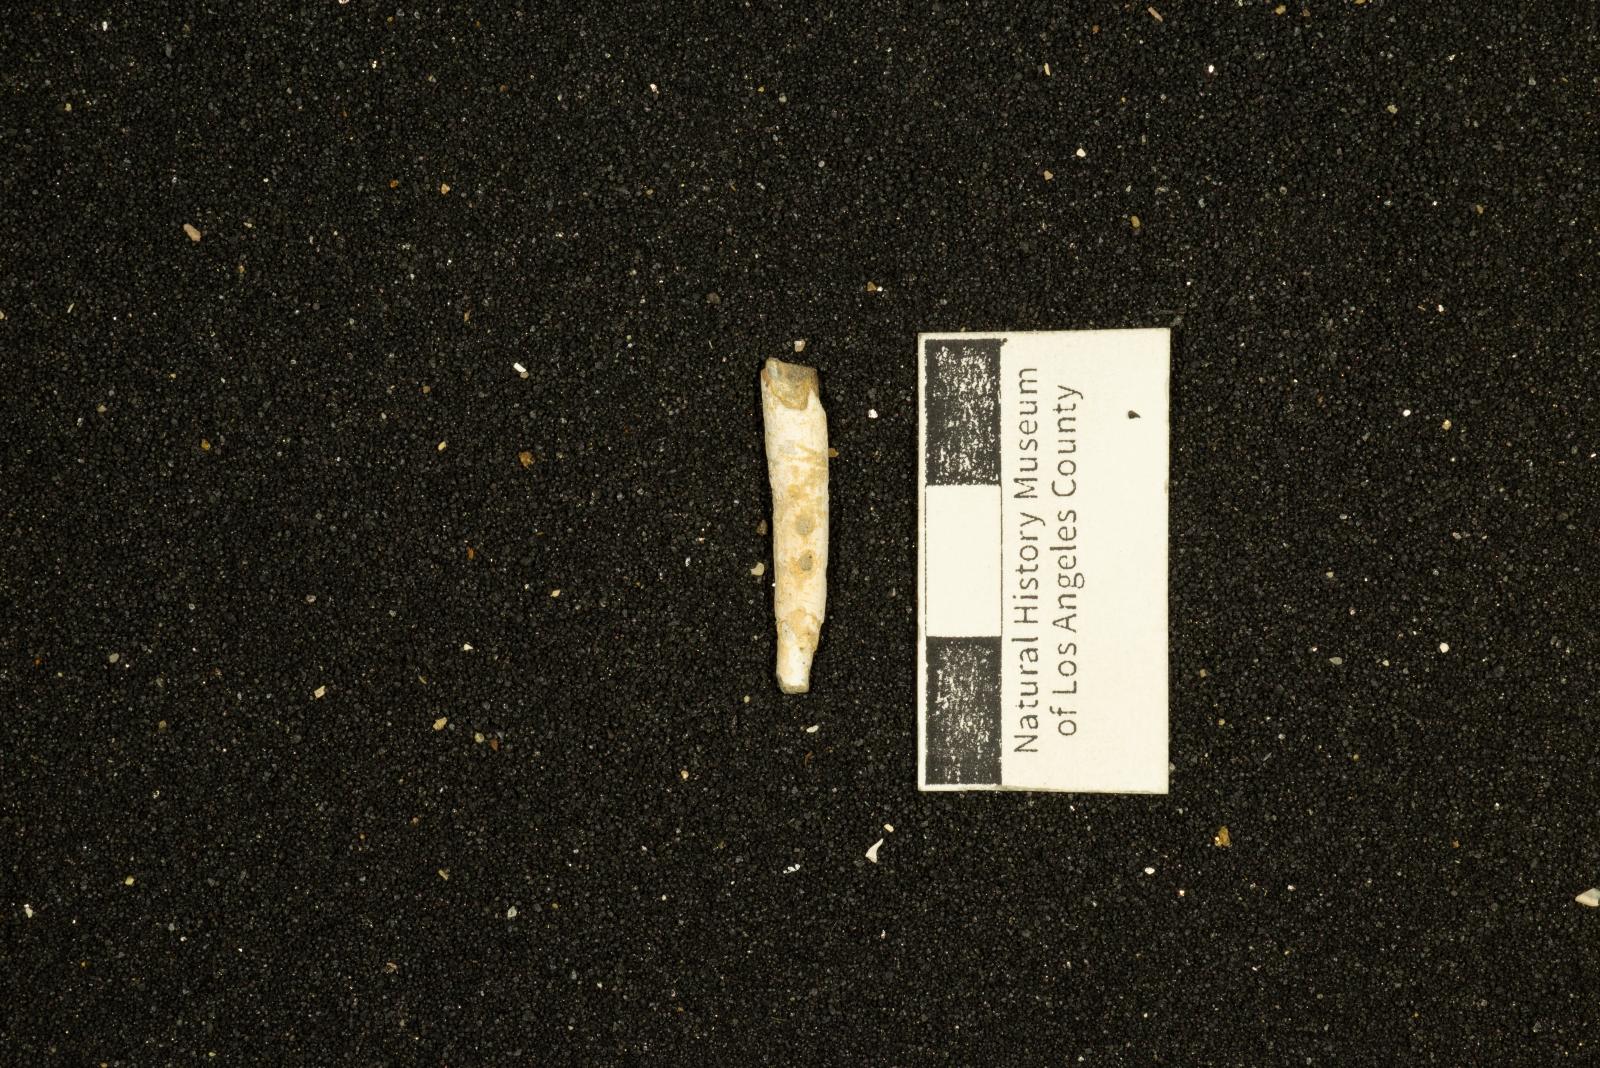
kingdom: Animalia
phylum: Mollusca
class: Scaphopoda
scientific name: Scaphopoda
